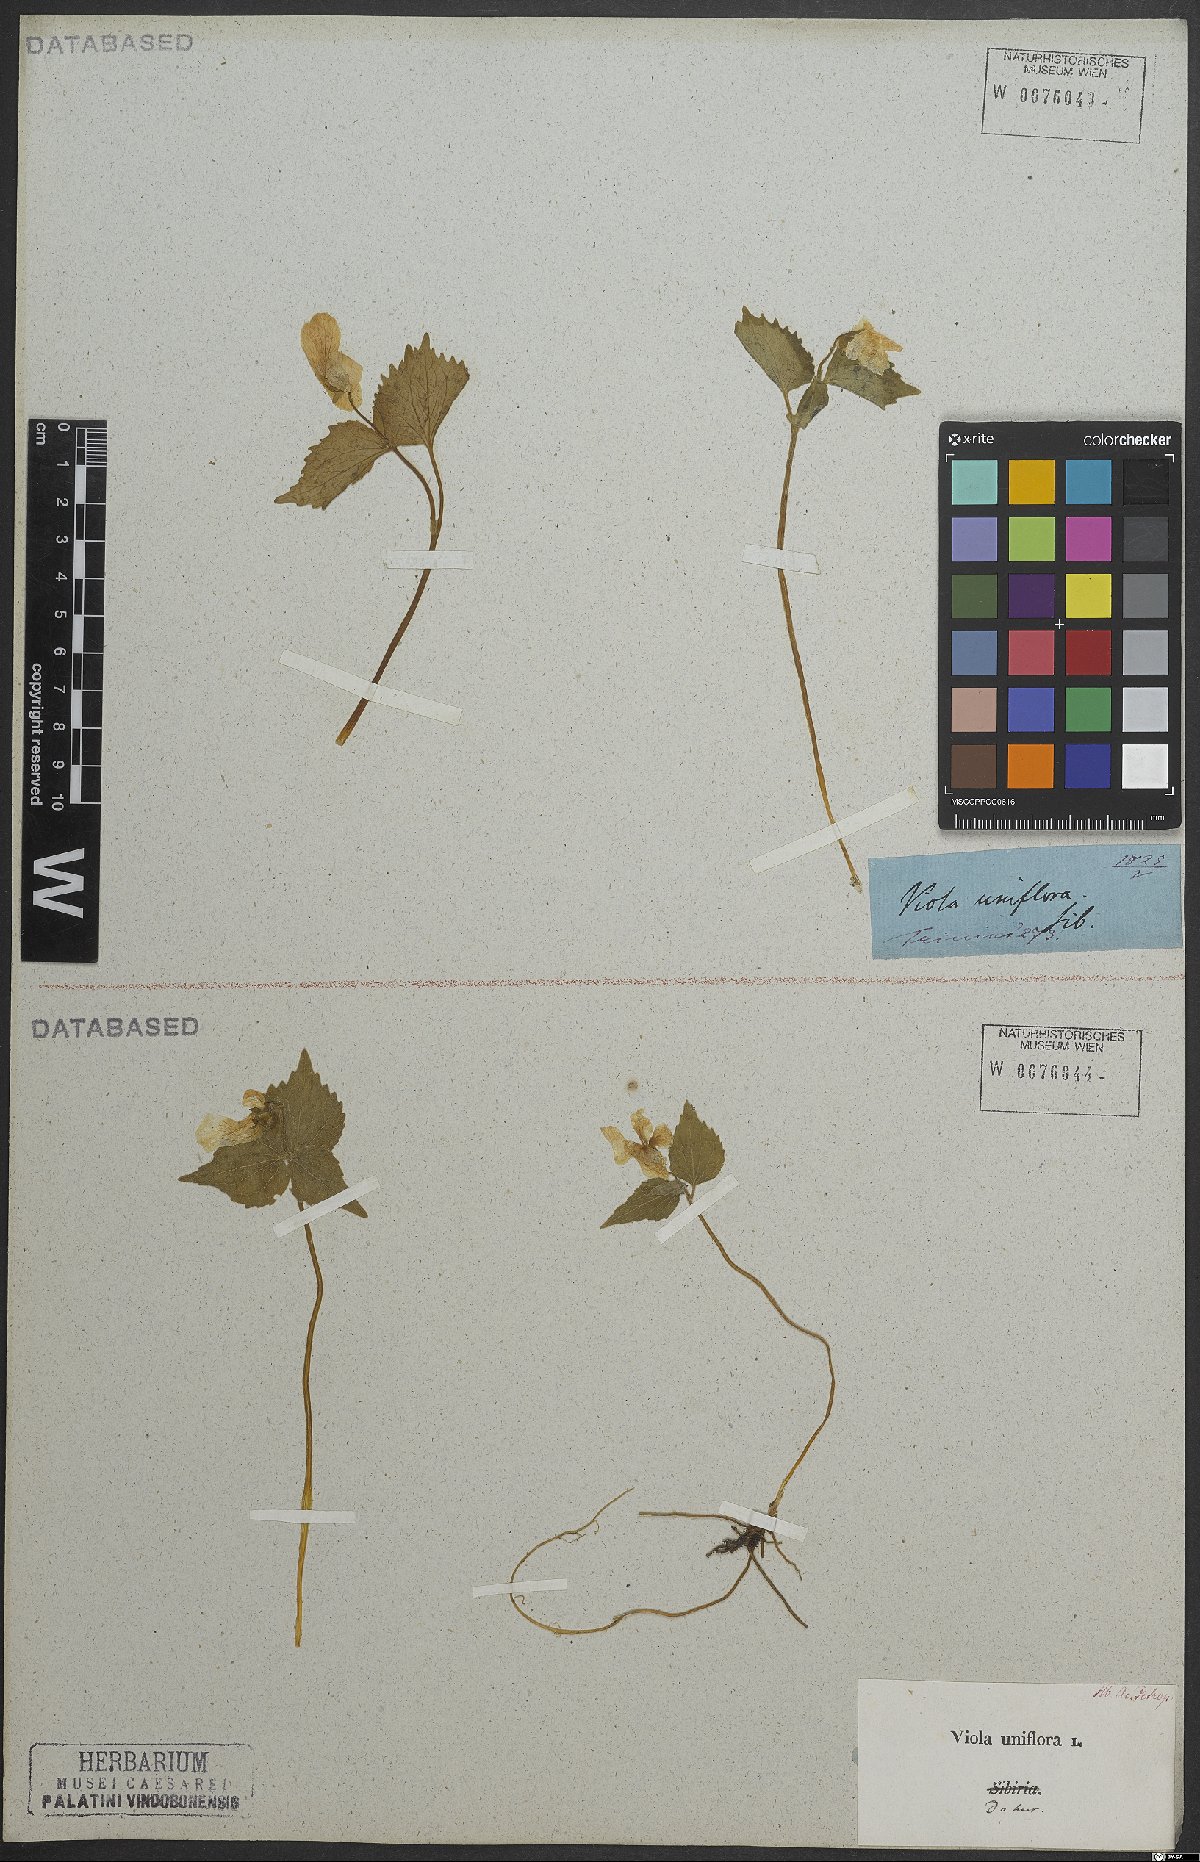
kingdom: Plantae
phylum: Tracheophyta
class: Magnoliopsida
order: Malpighiales
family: Violaceae
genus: Viola
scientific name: Viola uniflora
